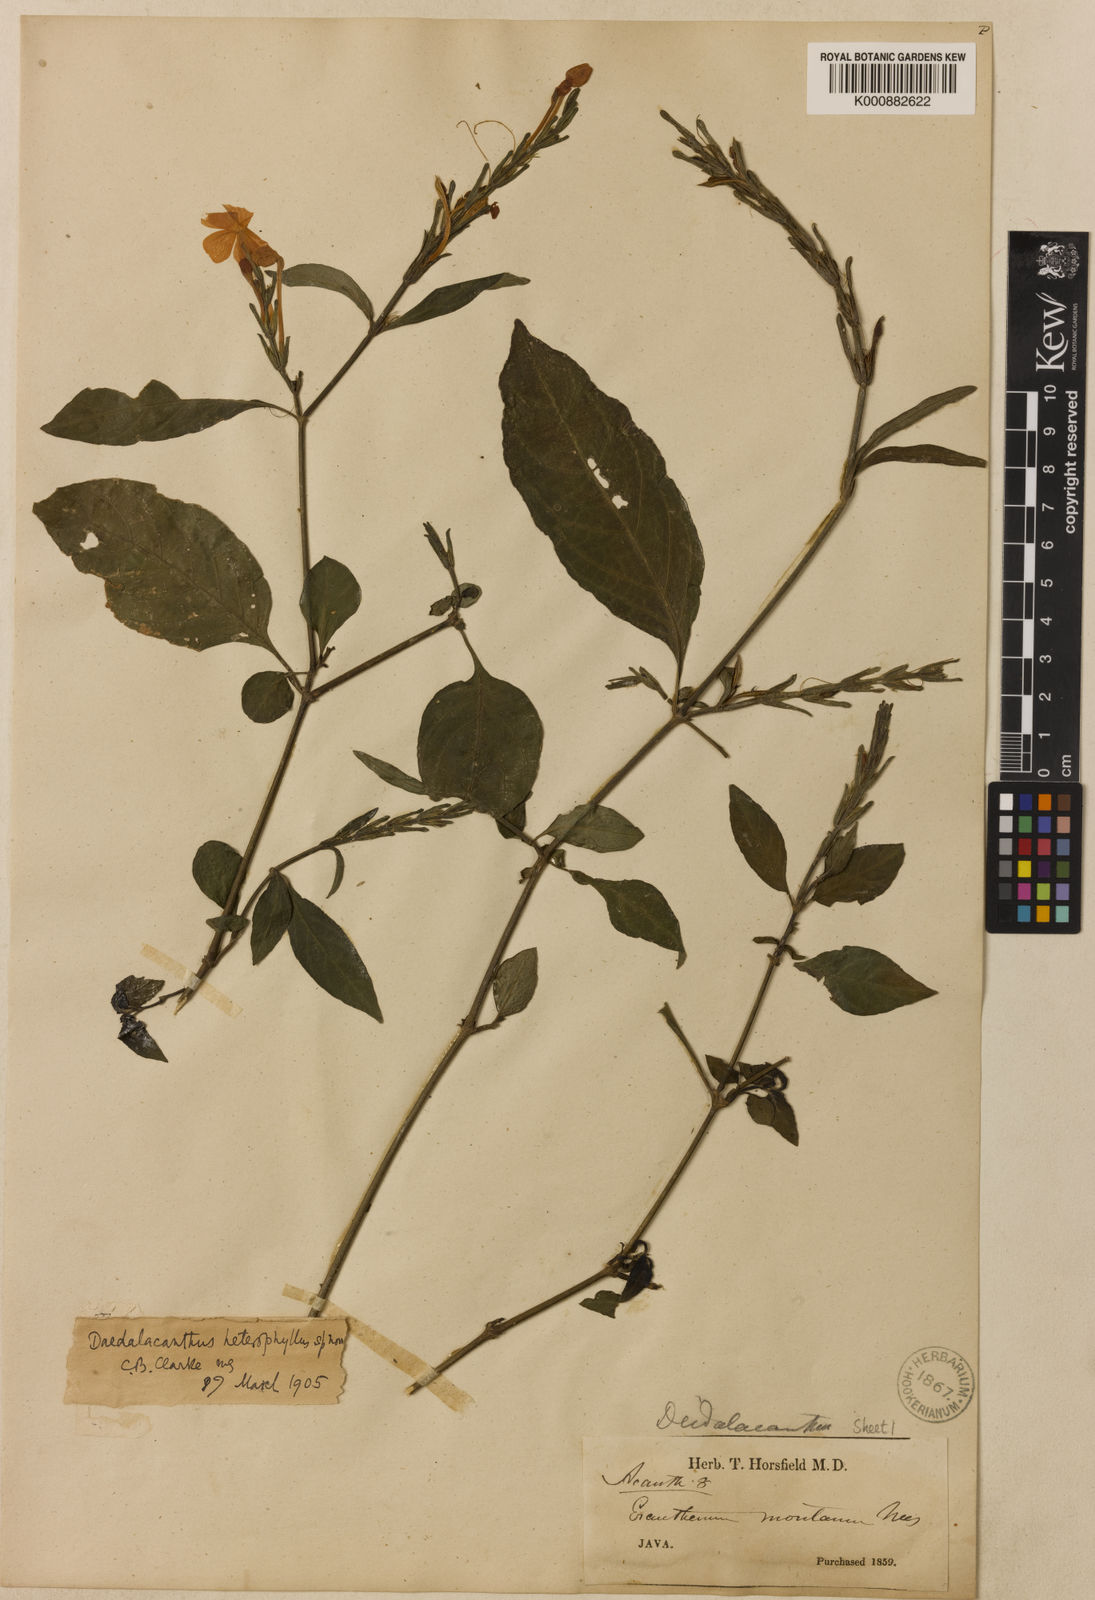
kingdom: Plantae
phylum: Tracheophyta
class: Magnoliopsida
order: Lamiales
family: Acanthaceae
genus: Pseuderanthemum
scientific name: Pseuderanthemum heterophyllum
